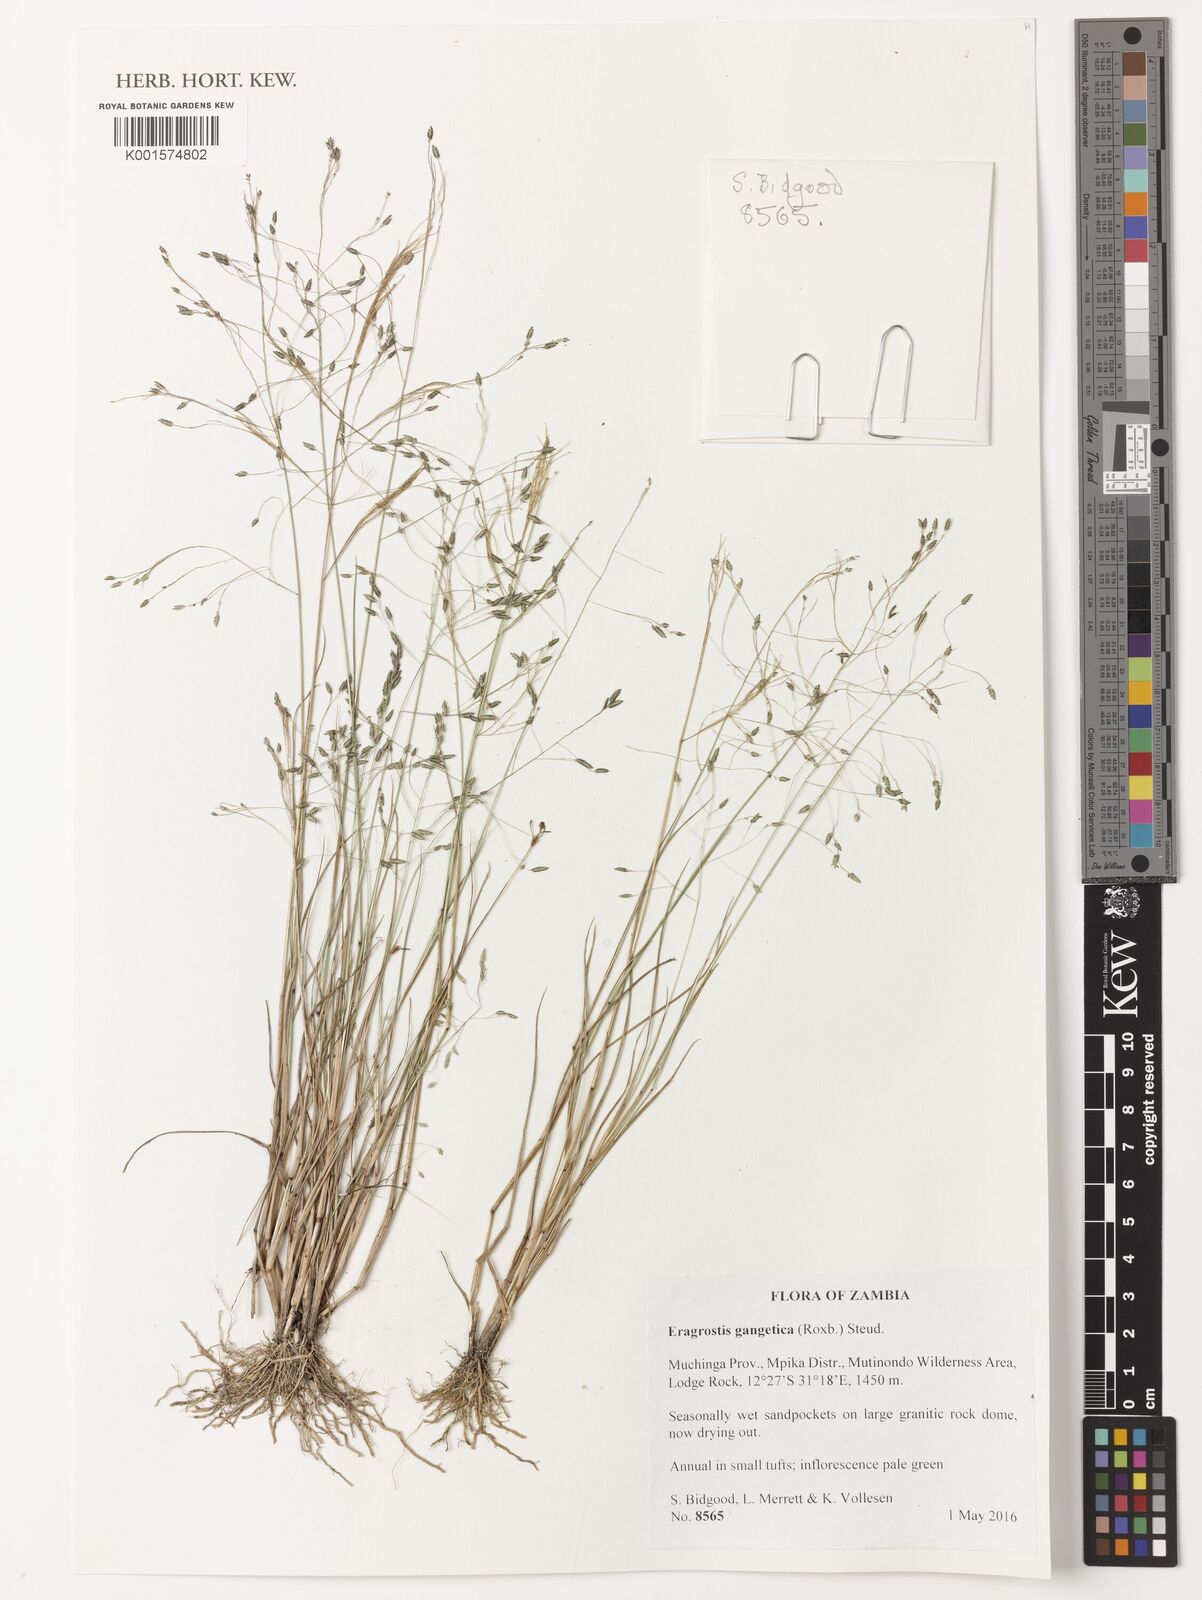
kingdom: Plantae
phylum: Tracheophyta
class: Liliopsida
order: Poales
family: Poaceae
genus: Eragrostis
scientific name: Eragrostis gangetica
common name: Slimflower lovegrass
